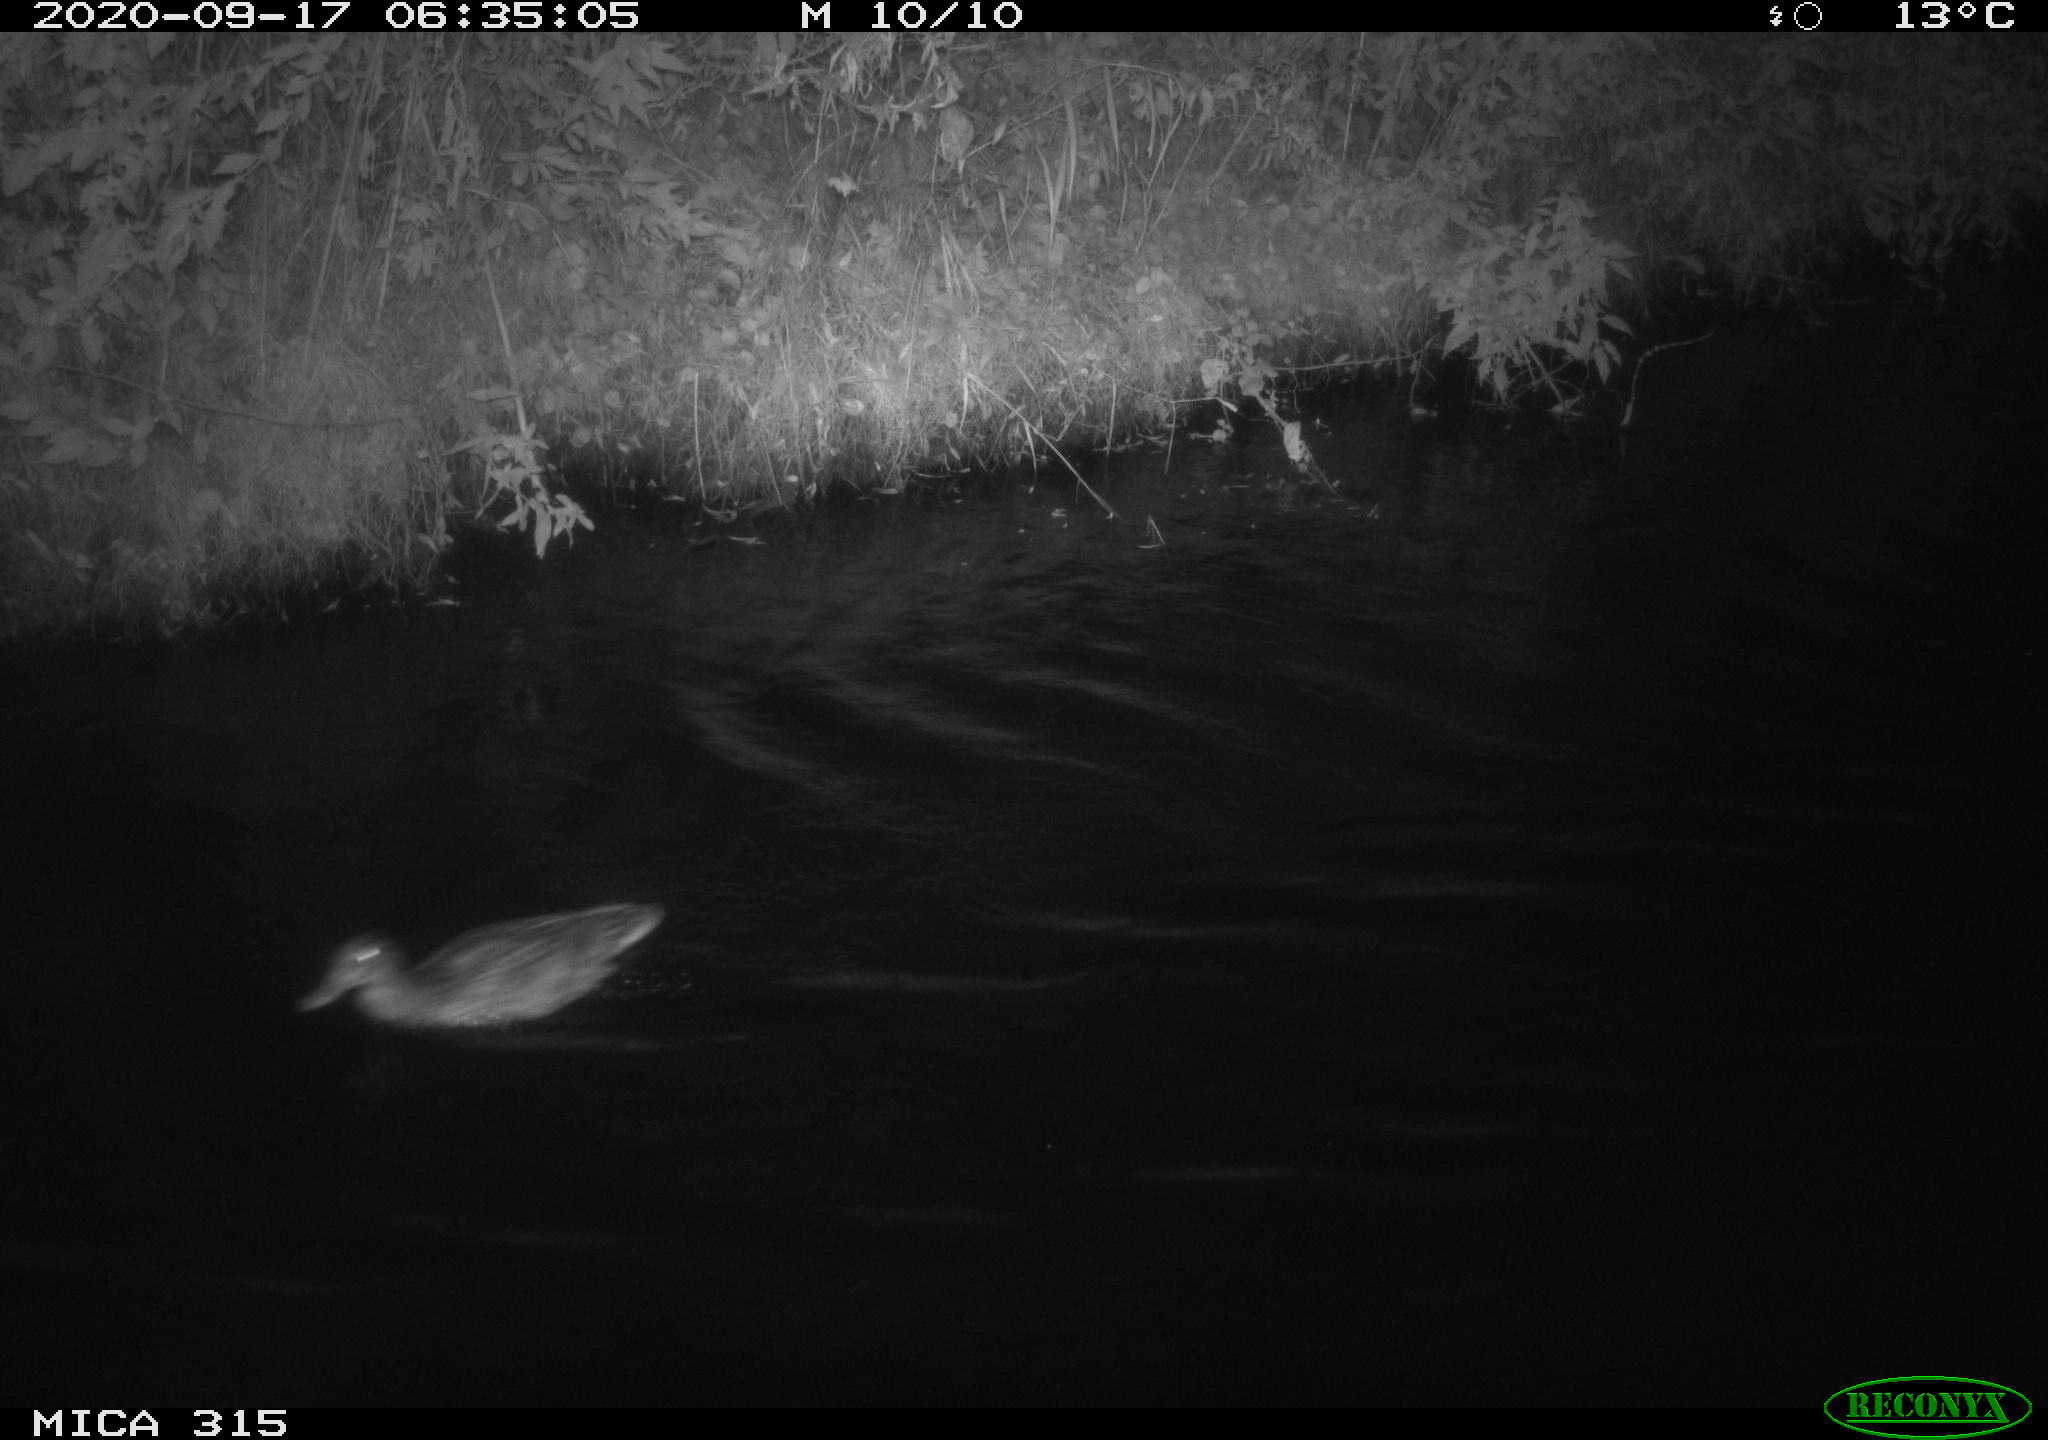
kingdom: Animalia
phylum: Chordata
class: Aves
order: Anseriformes
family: Anatidae
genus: Anas
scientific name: Anas platyrhynchos
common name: Mallard
